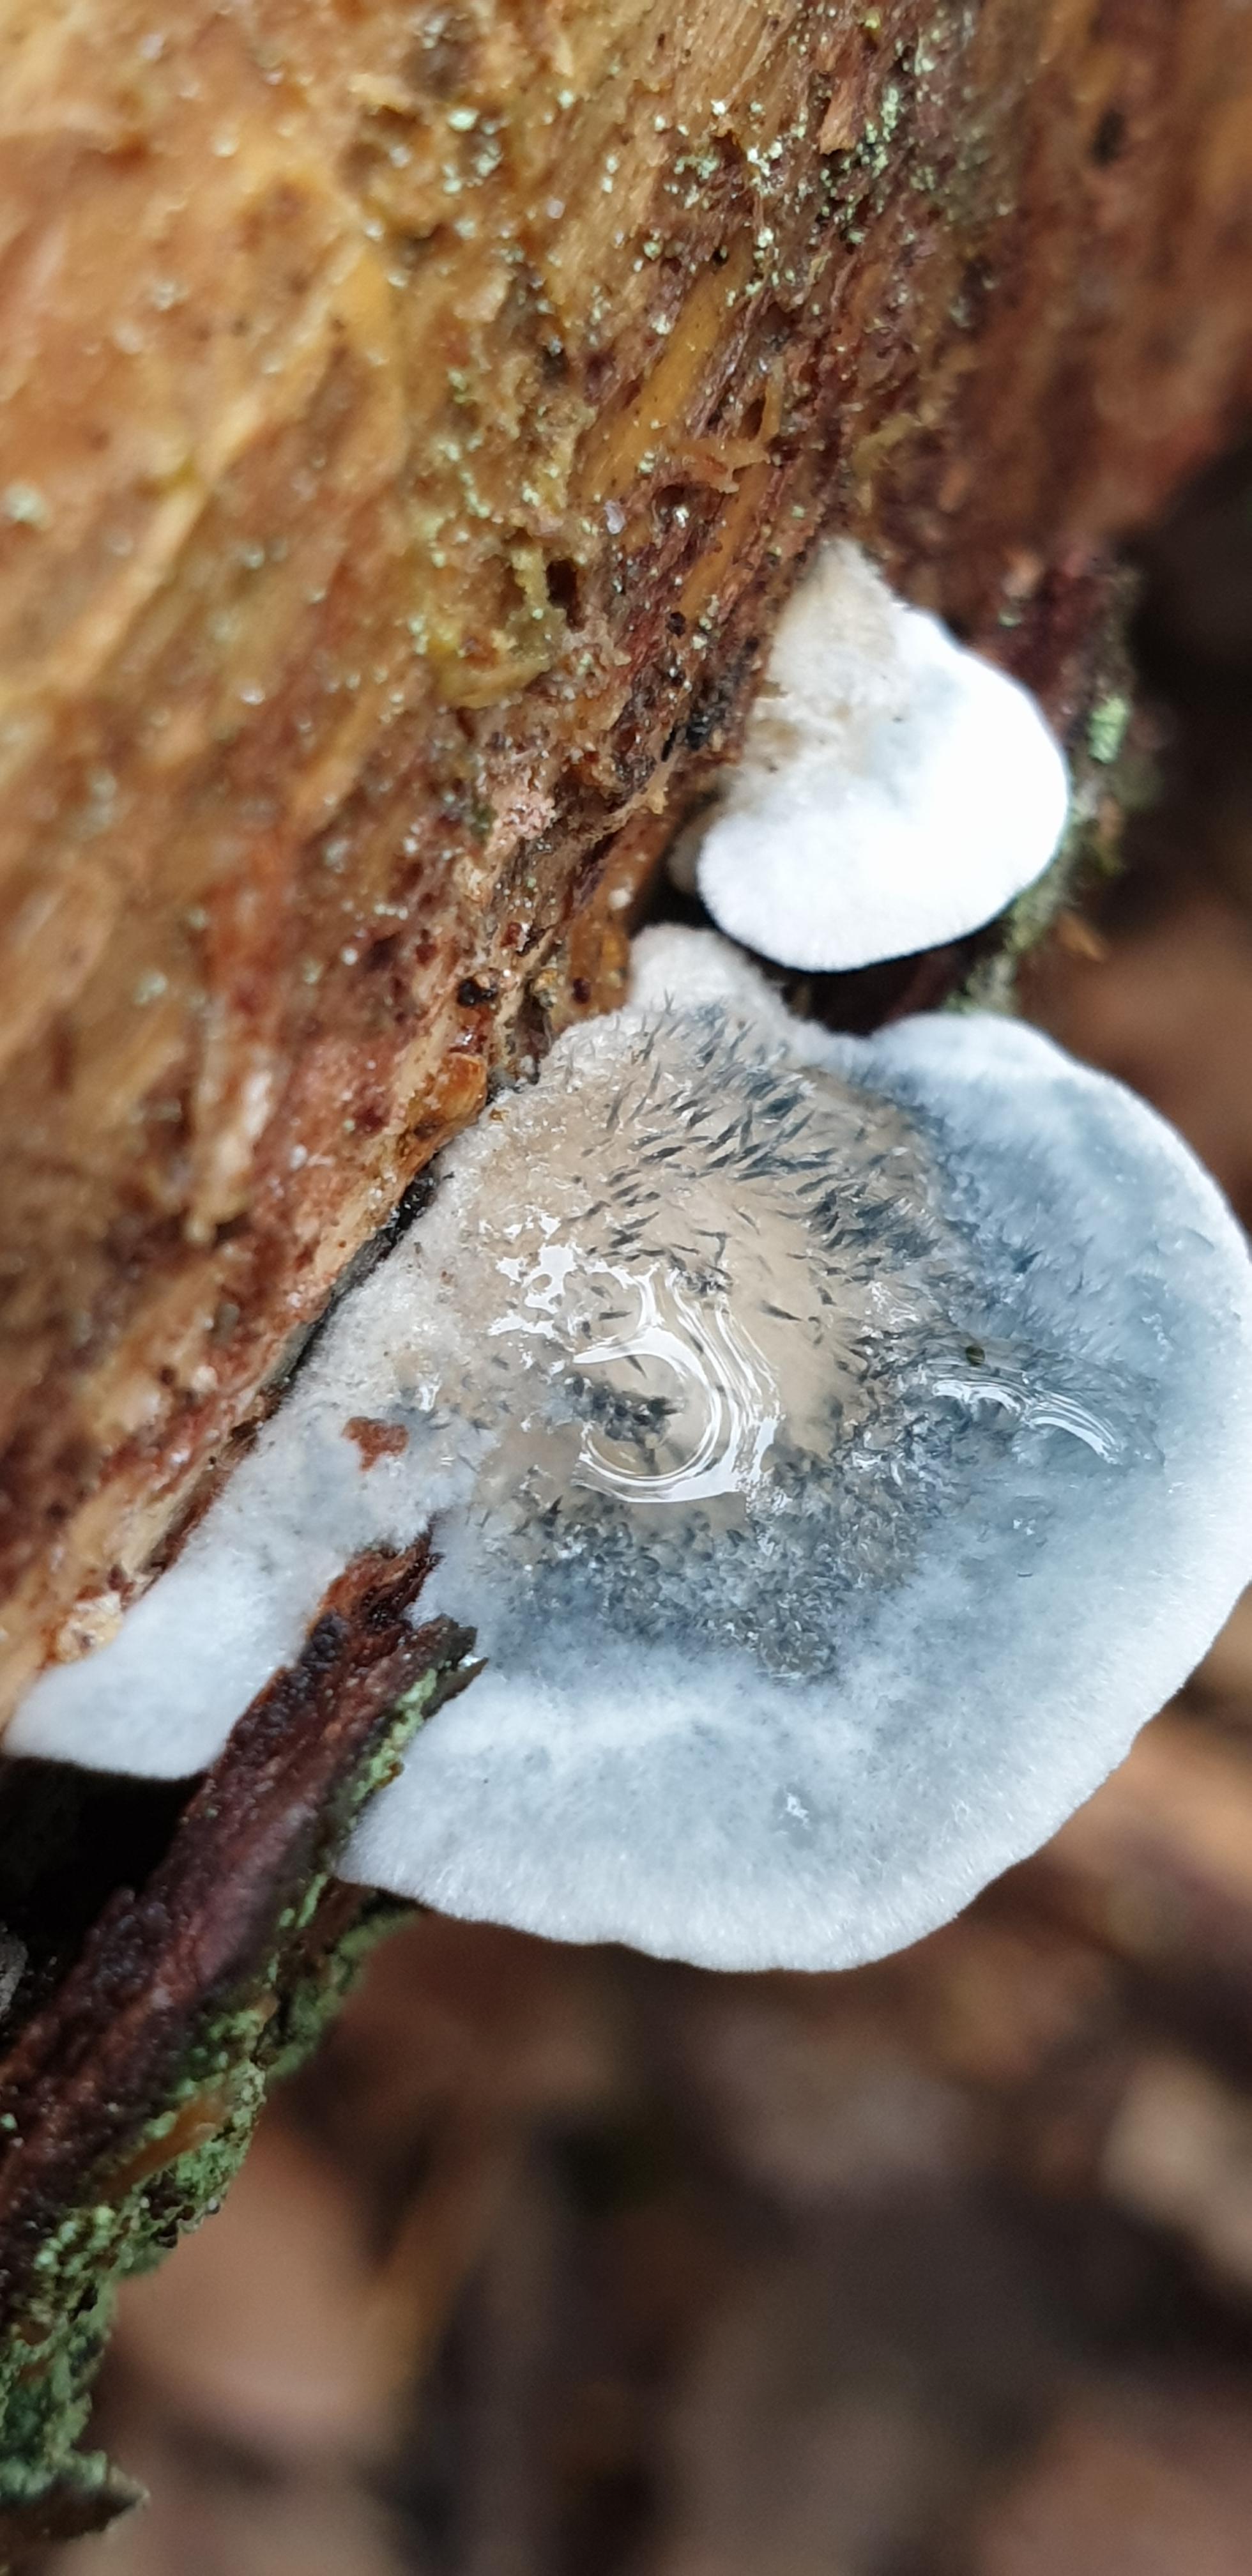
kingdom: Fungi
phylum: Basidiomycota
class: Agaricomycetes
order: Polyporales
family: Polyporaceae
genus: Cyanosporus
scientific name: Cyanosporus alni
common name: blegblå kødporesvamp
